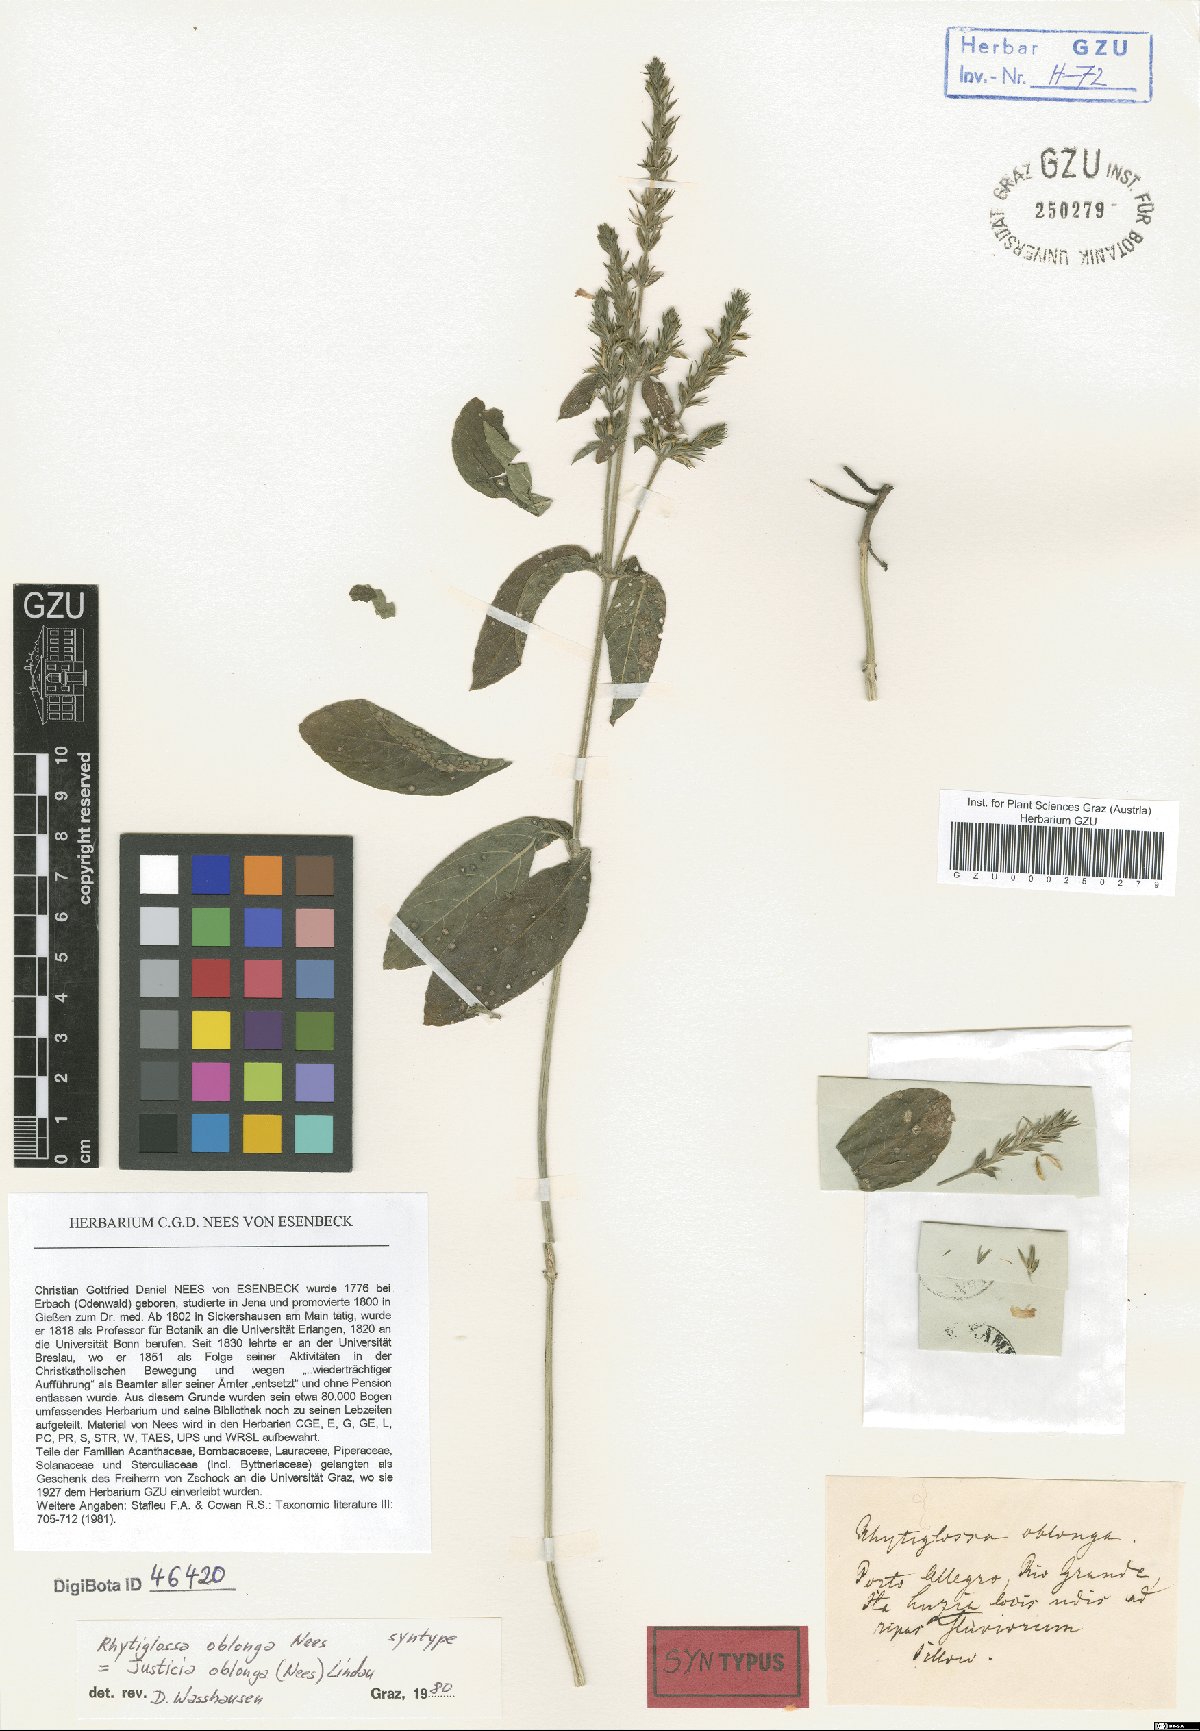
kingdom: Plantae
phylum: Tracheophyta
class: Magnoliopsida
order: Lamiales
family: Acanthaceae
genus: Dianthera
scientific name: Dianthera oblonga
